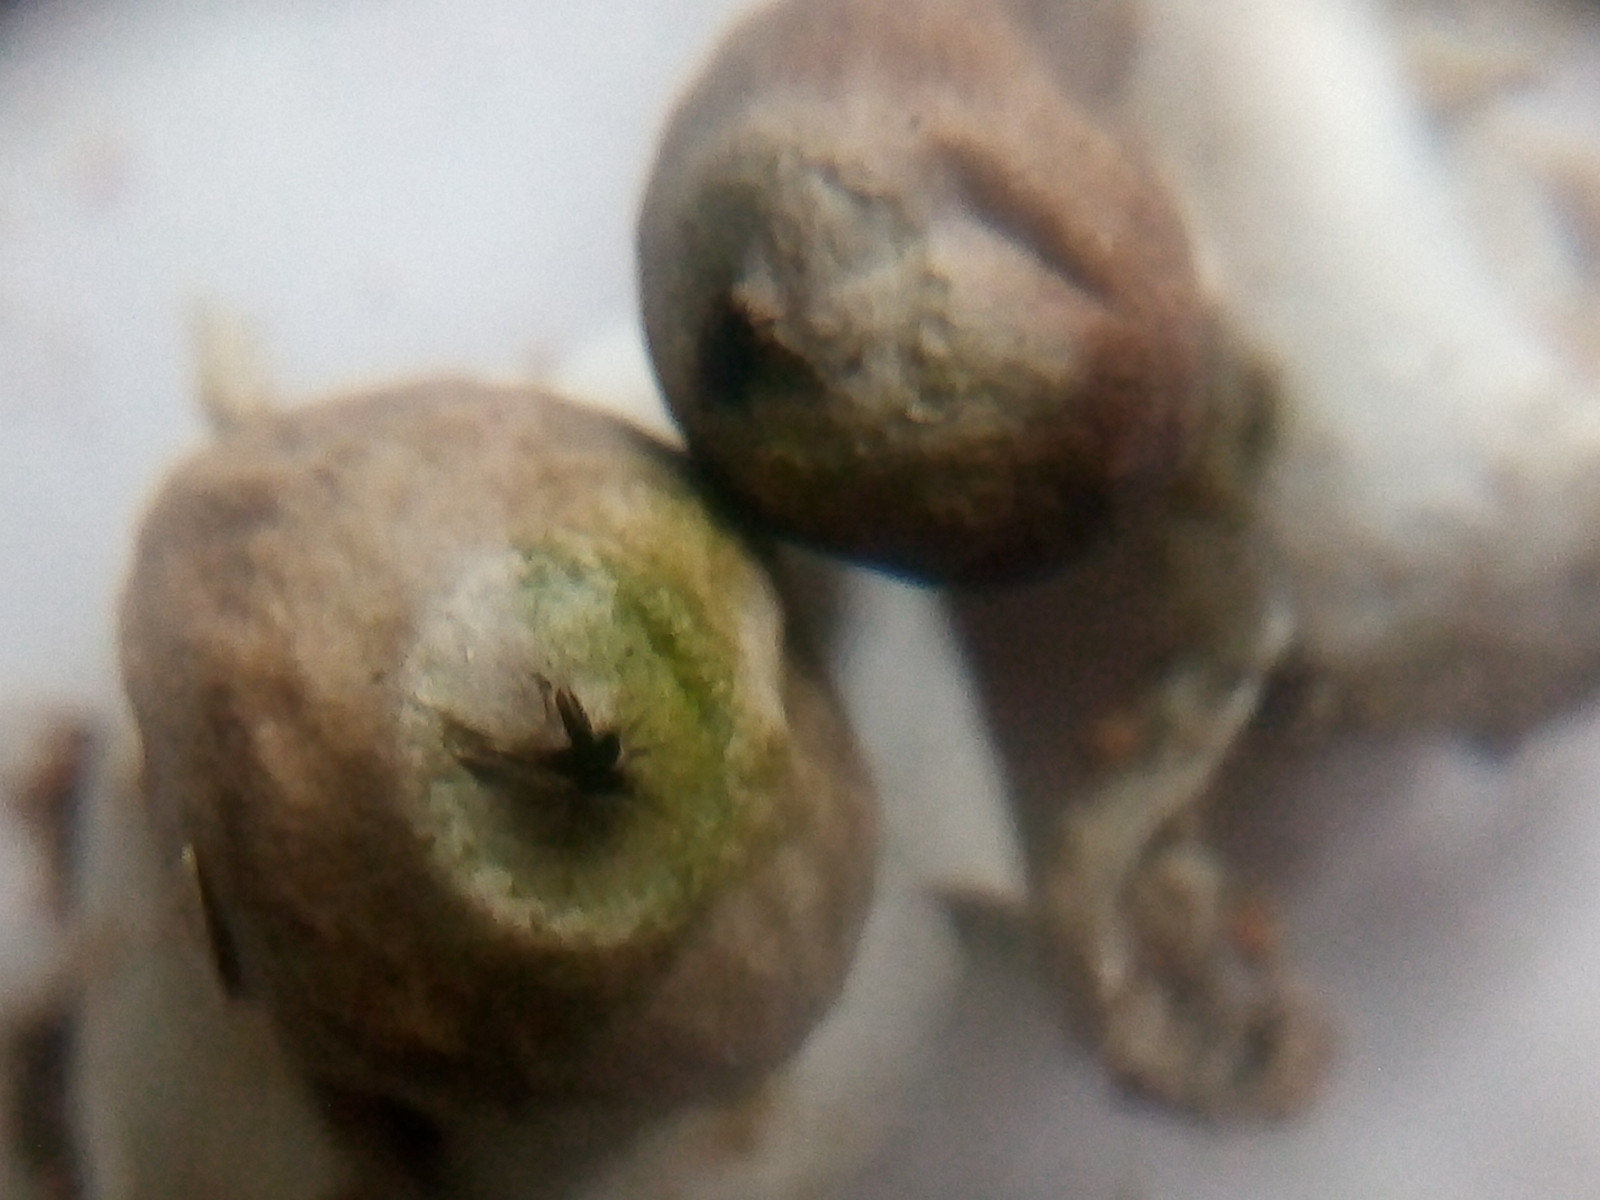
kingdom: Fungi
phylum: Basidiomycota
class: Agaricomycetes
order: Geastrales
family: Geastraceae
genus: Geastrum
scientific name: Geastrum minimum
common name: liden stjernebold
